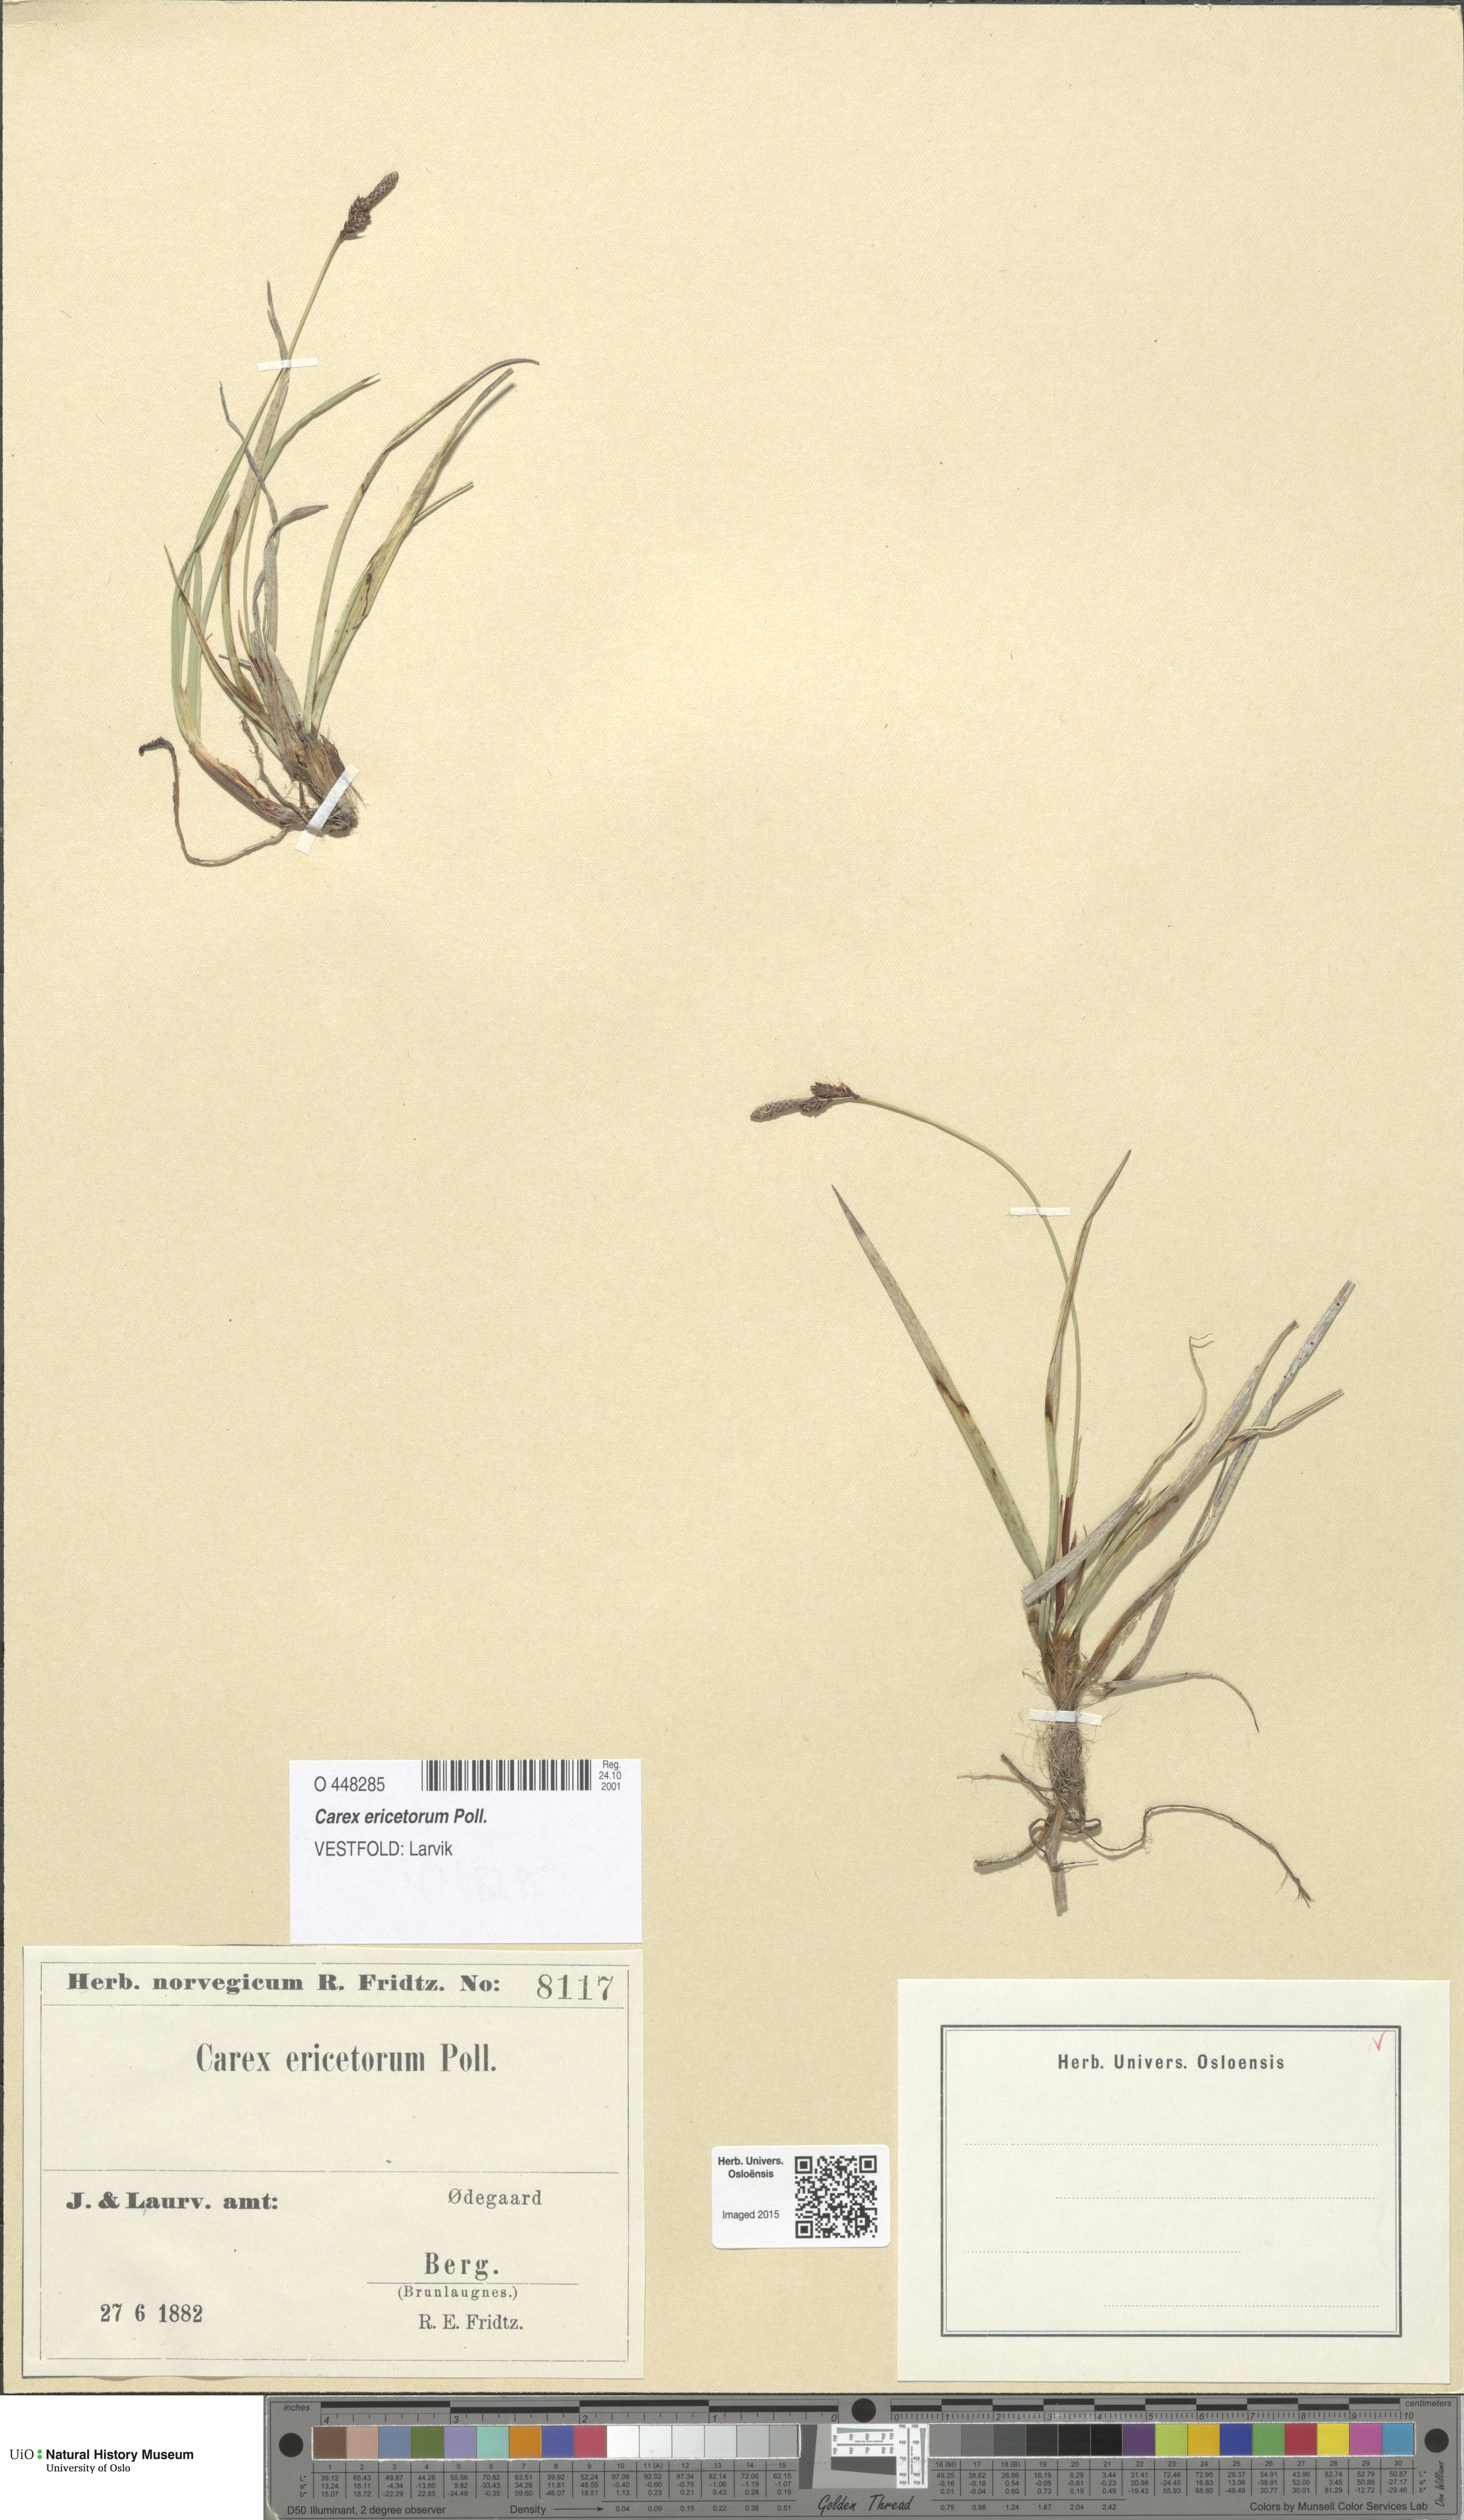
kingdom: Plantae
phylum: Tracheophyta
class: Liliopsida
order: Poales
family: Cyperaceae
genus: Carex
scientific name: Carex ericetorum
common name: Rare spring-sedge
